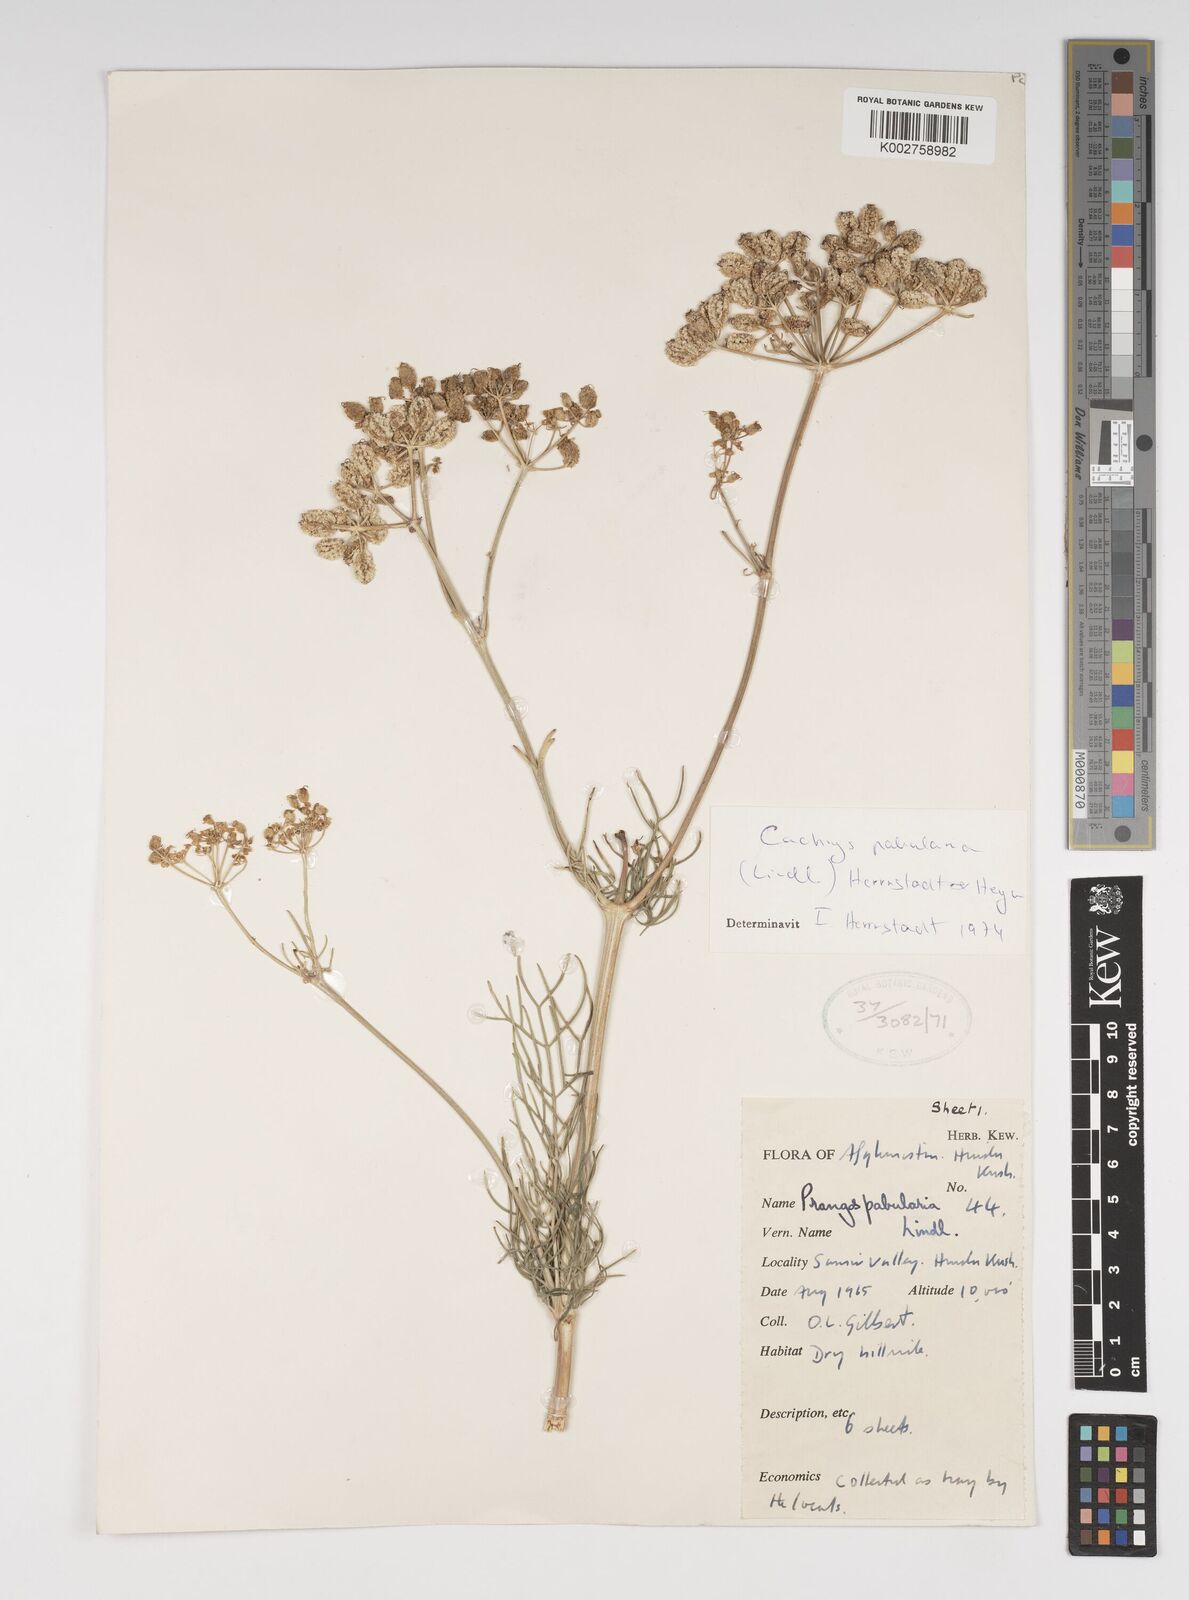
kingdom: Plantae
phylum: Tracheophyta
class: Magnoliopsida
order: Apiales
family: Apiaceae
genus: Prangos
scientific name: Prangos pabularia
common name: Yugan
